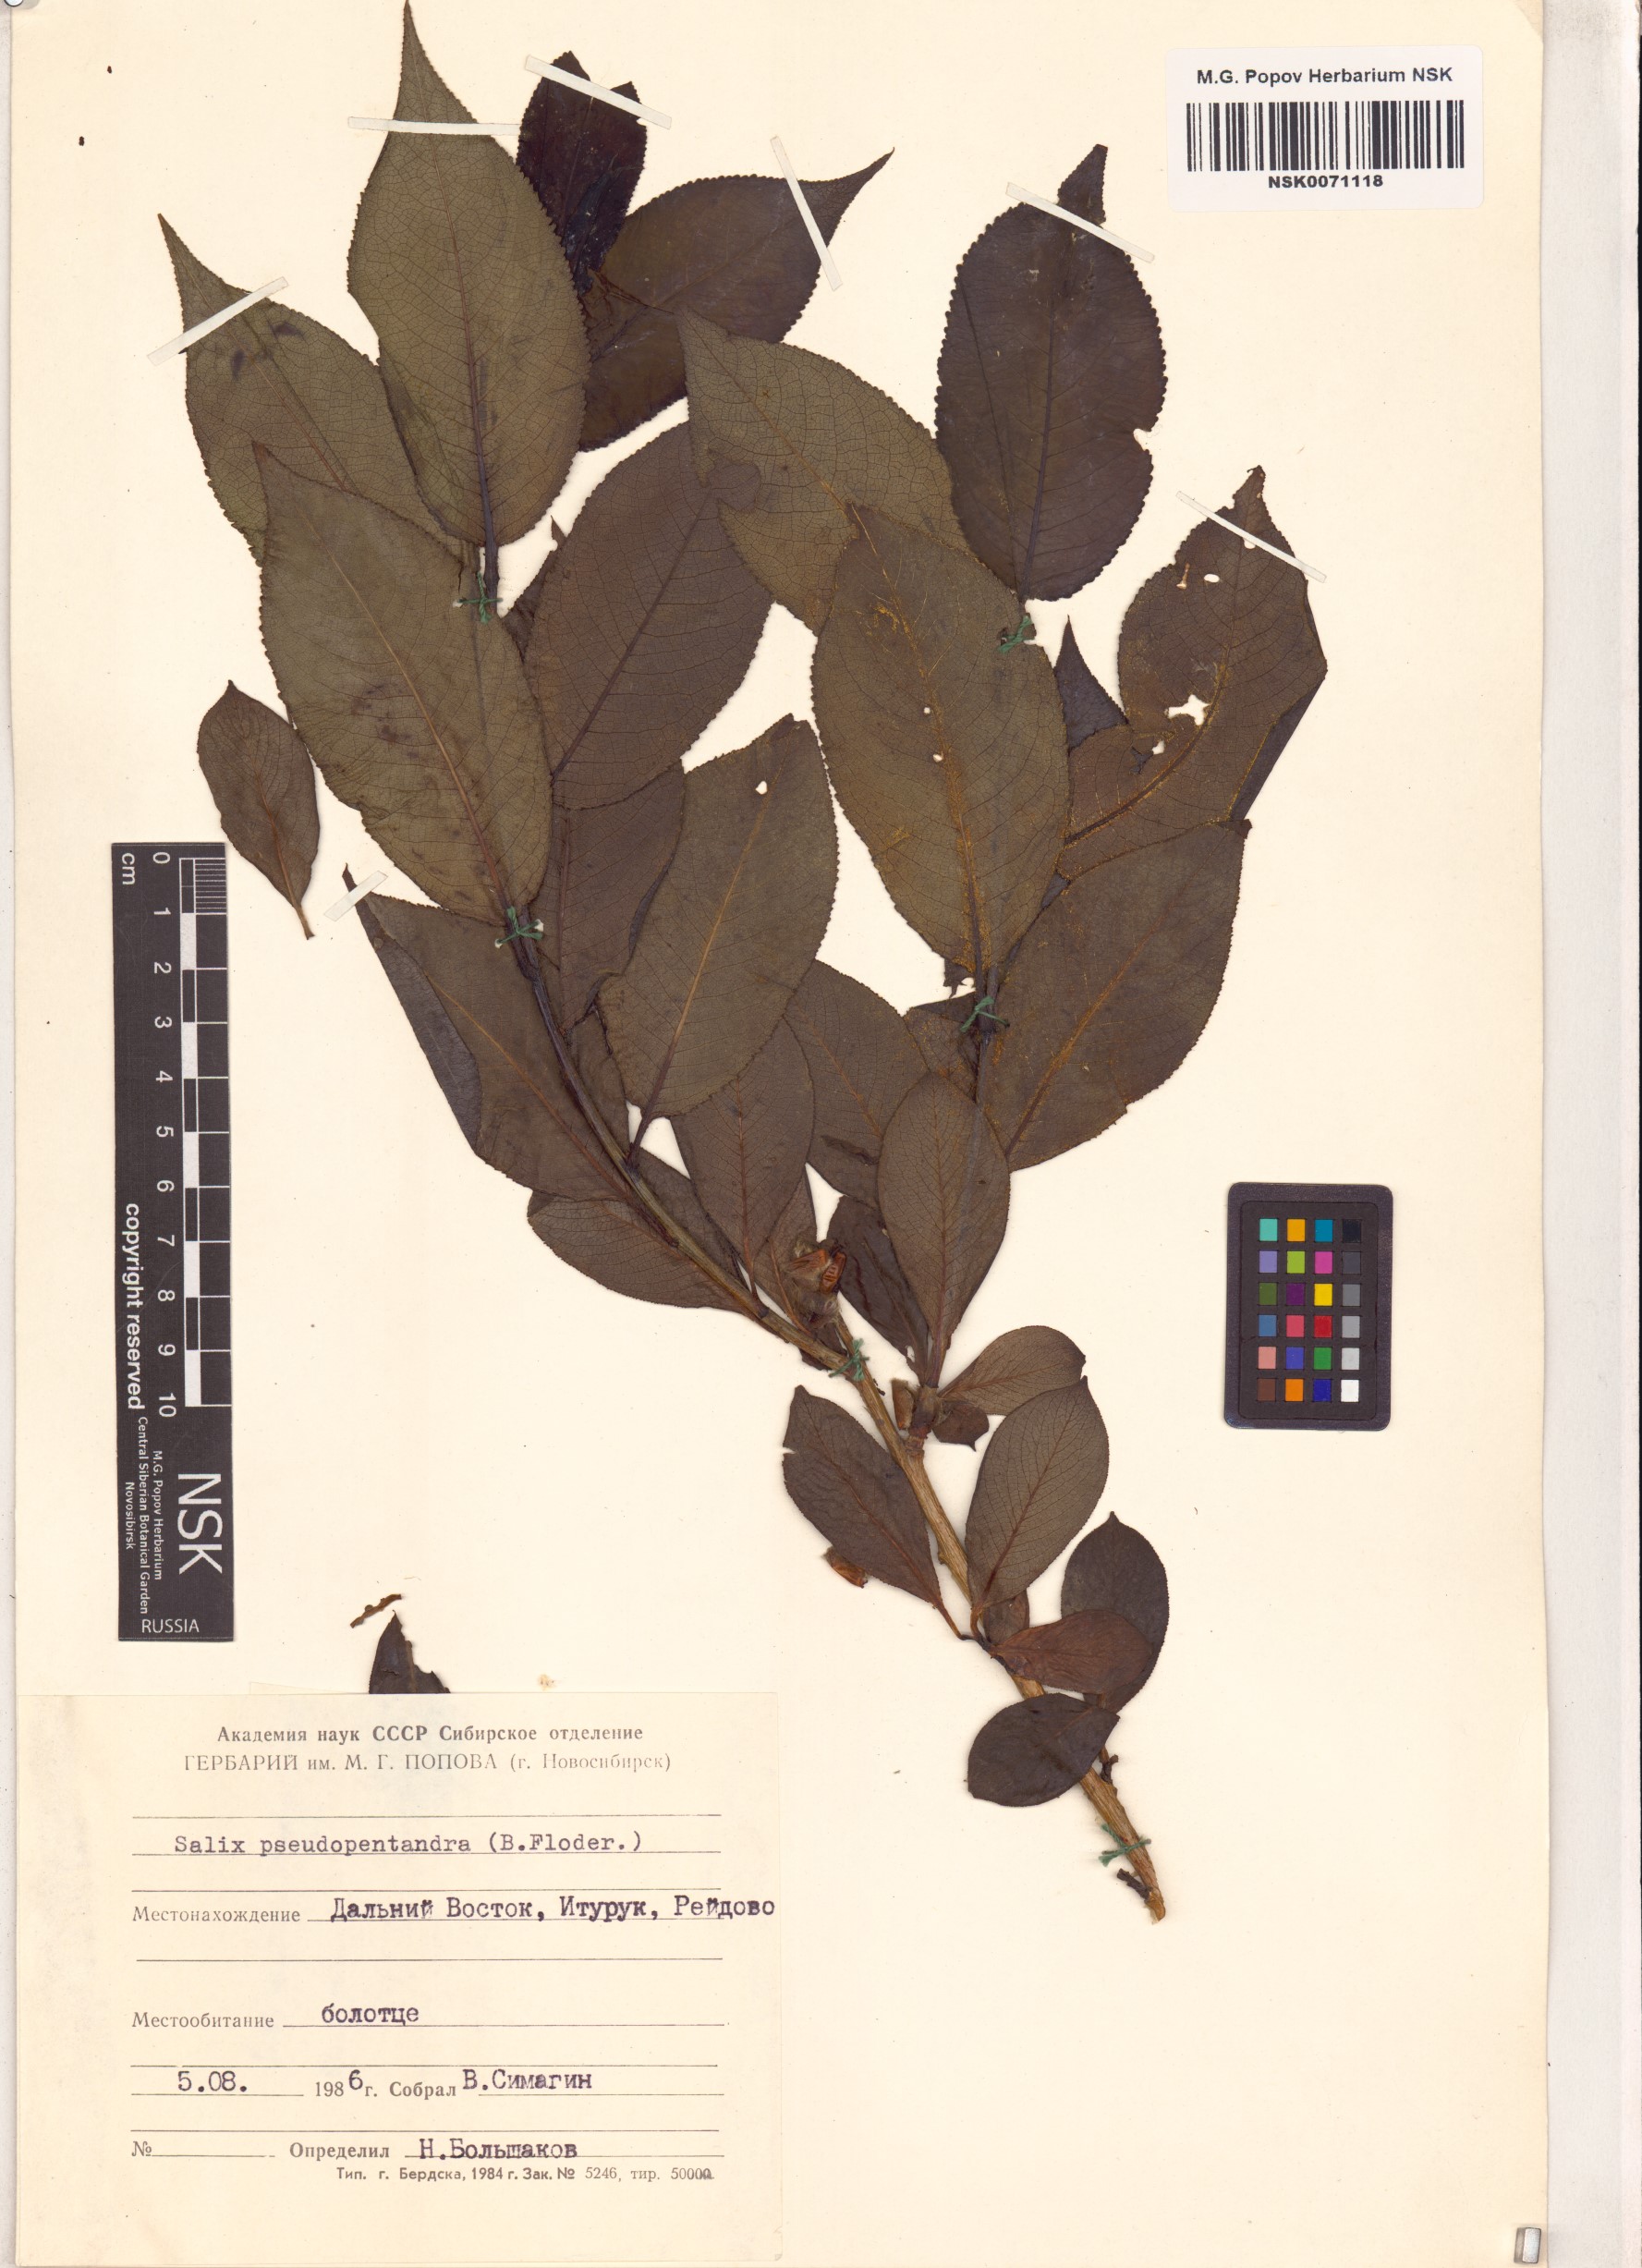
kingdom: Plantae
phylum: Tracheophyta
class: Magnoliopsida
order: Malpighiales
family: Salicaceae
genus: Salix
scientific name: Salix pseudopentandra
